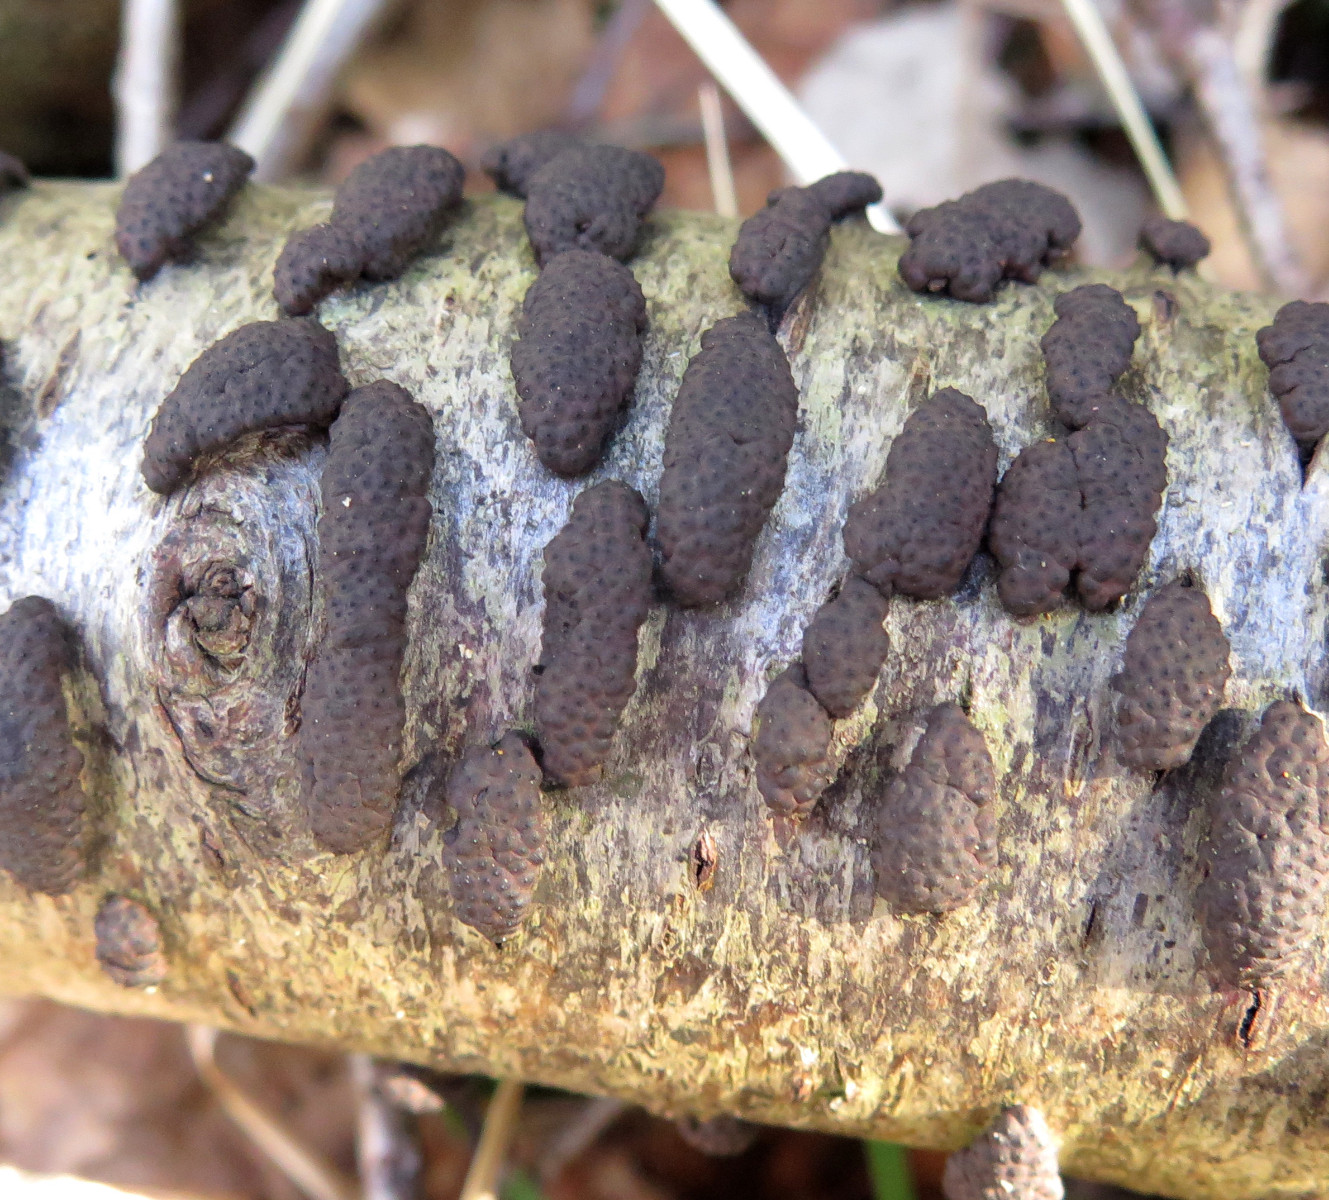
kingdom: Fungi
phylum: Ascomycota
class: Sordariomycetes
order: Xylariales
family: Hypoxylaceae
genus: Jackrogersella
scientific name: Jackrogersella multiformis
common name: foranderlig kulbær
